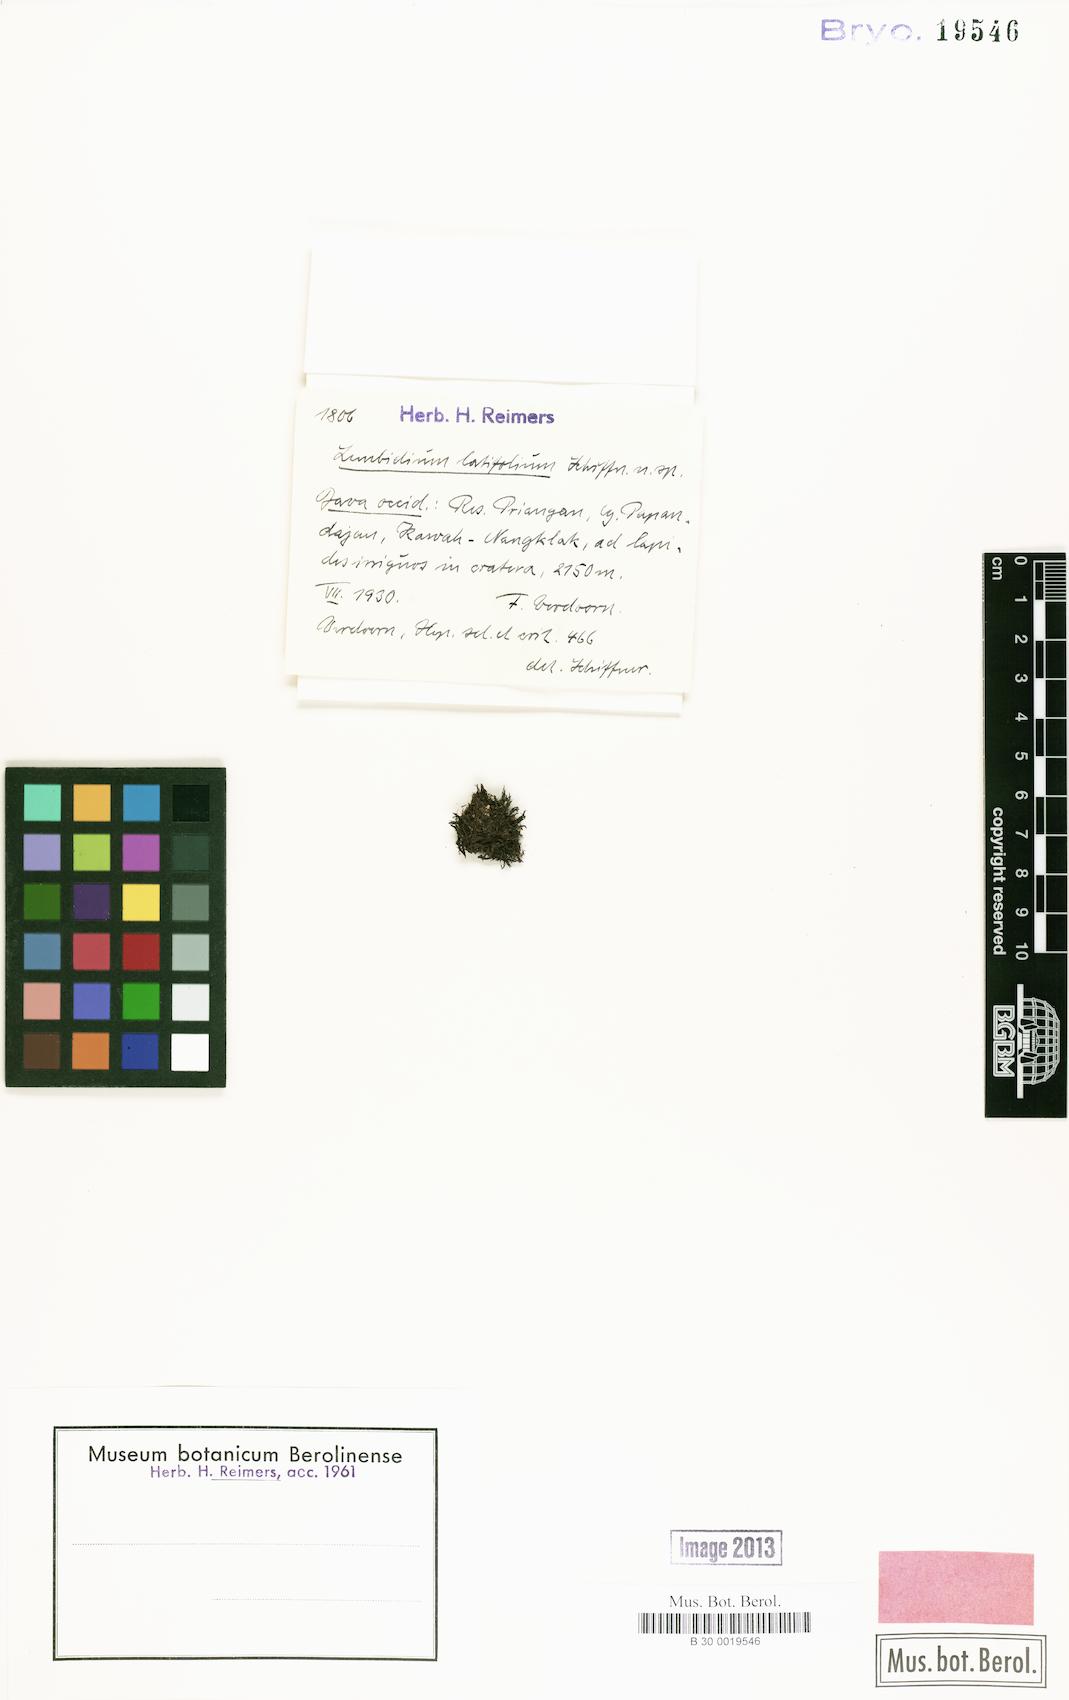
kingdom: Plantae
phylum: Marchantiophyta
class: Jungermanniopsida
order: Jungermanniales
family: Lepidoziaceae
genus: Lembidium
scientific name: Lembidium
